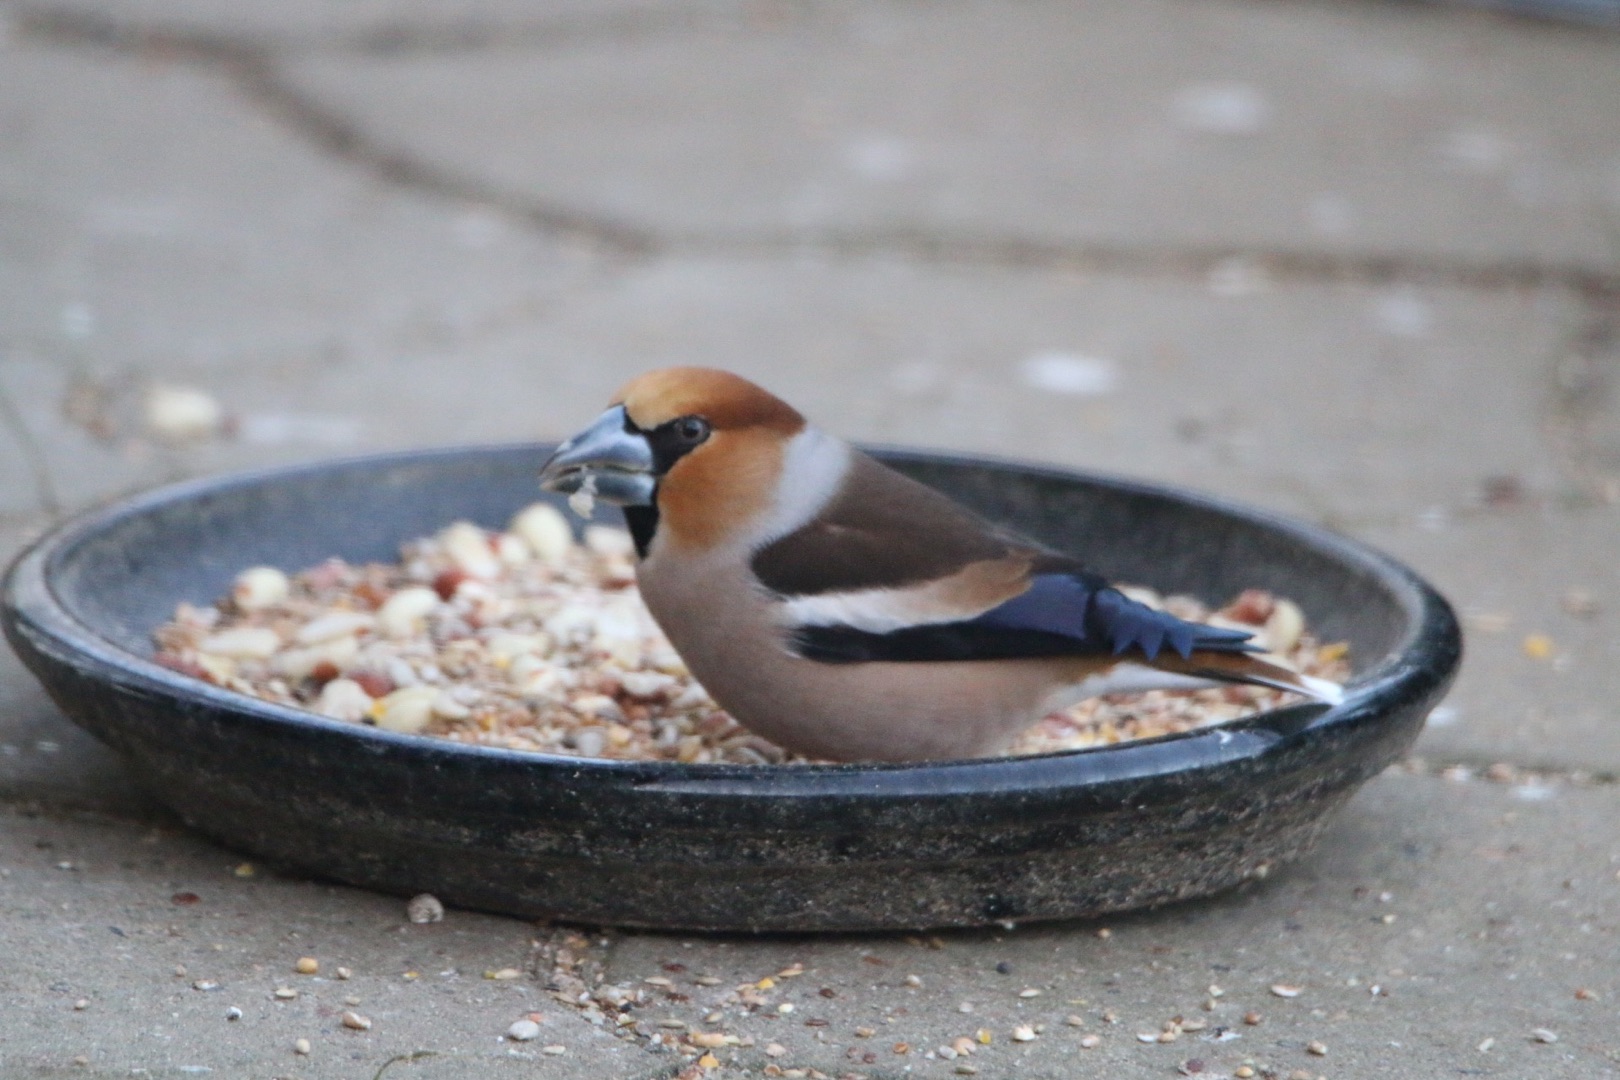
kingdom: Animalia
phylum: Chordata
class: Aves
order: Passeriformes
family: Fringillidae
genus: Coccothraustes
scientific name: Coccothraustes coccothraustes
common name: Kernebider
